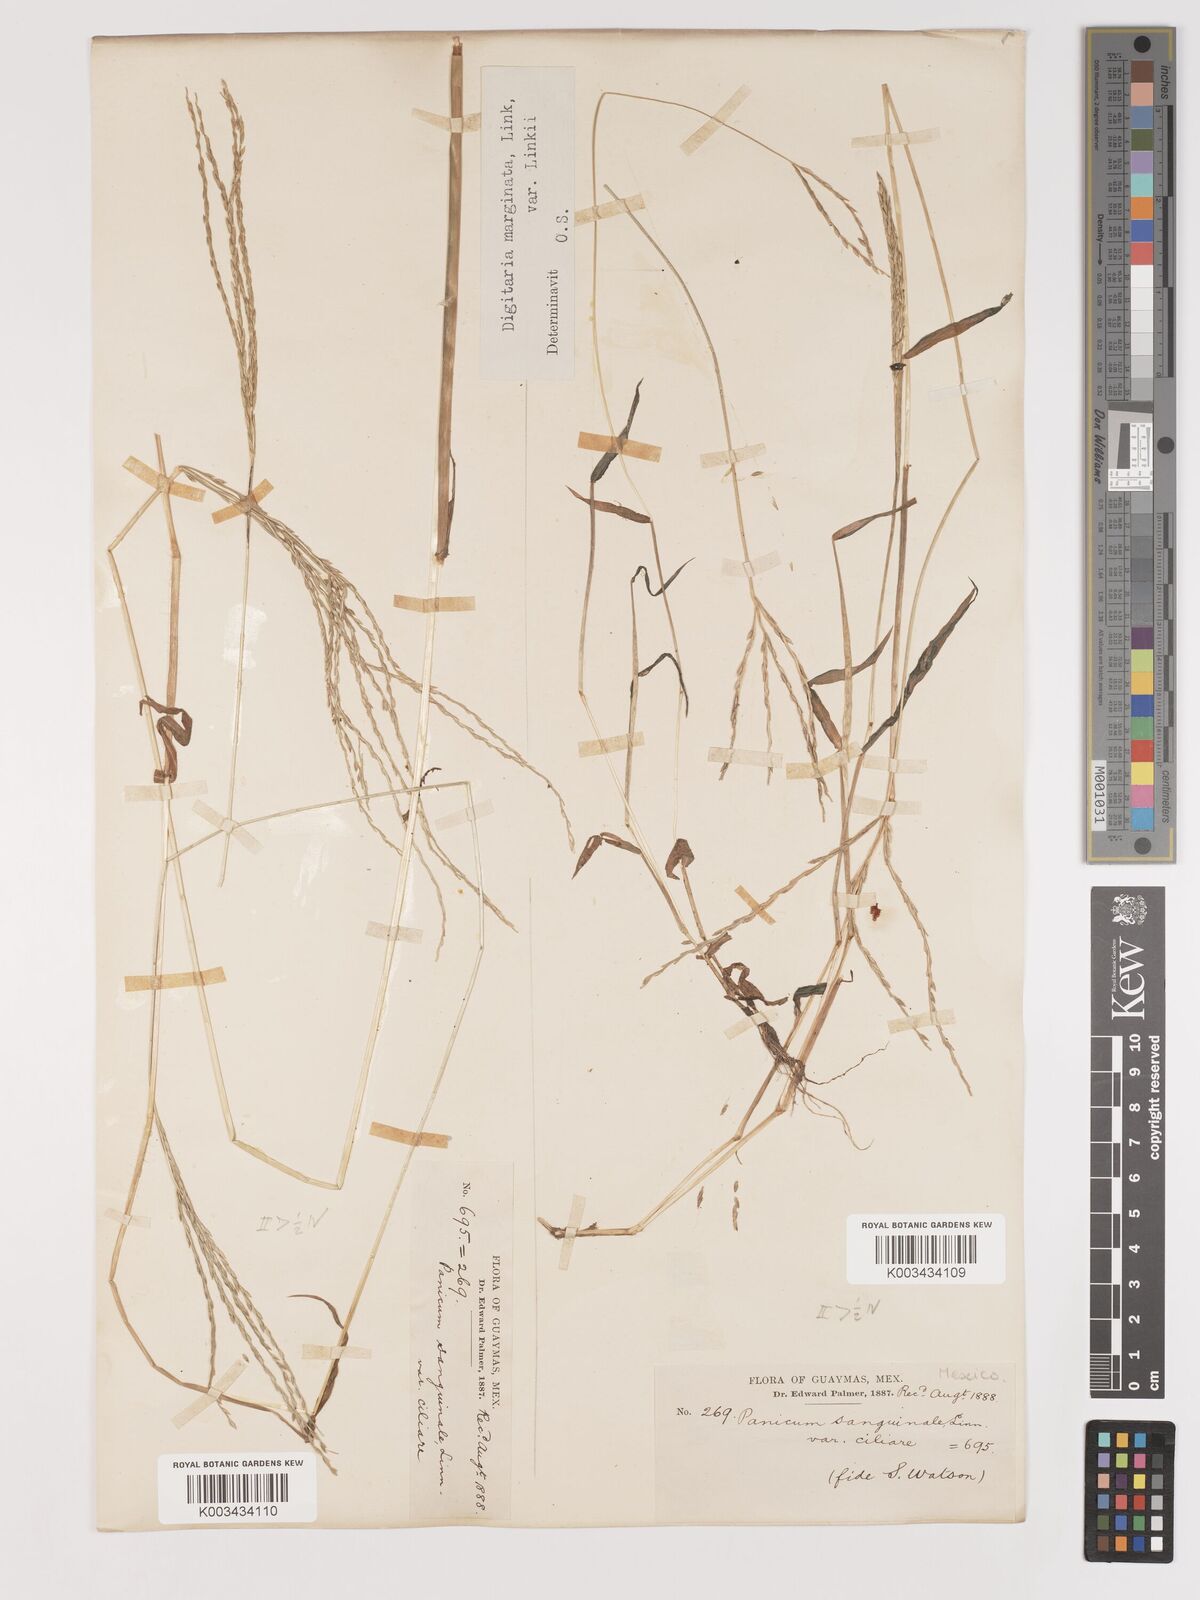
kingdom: Plantae
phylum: Tracheophyta
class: Liliopsida
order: Poales
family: Poaceae
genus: Digitaria
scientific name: Digitaria ciliaris
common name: Tropical finger-grass
